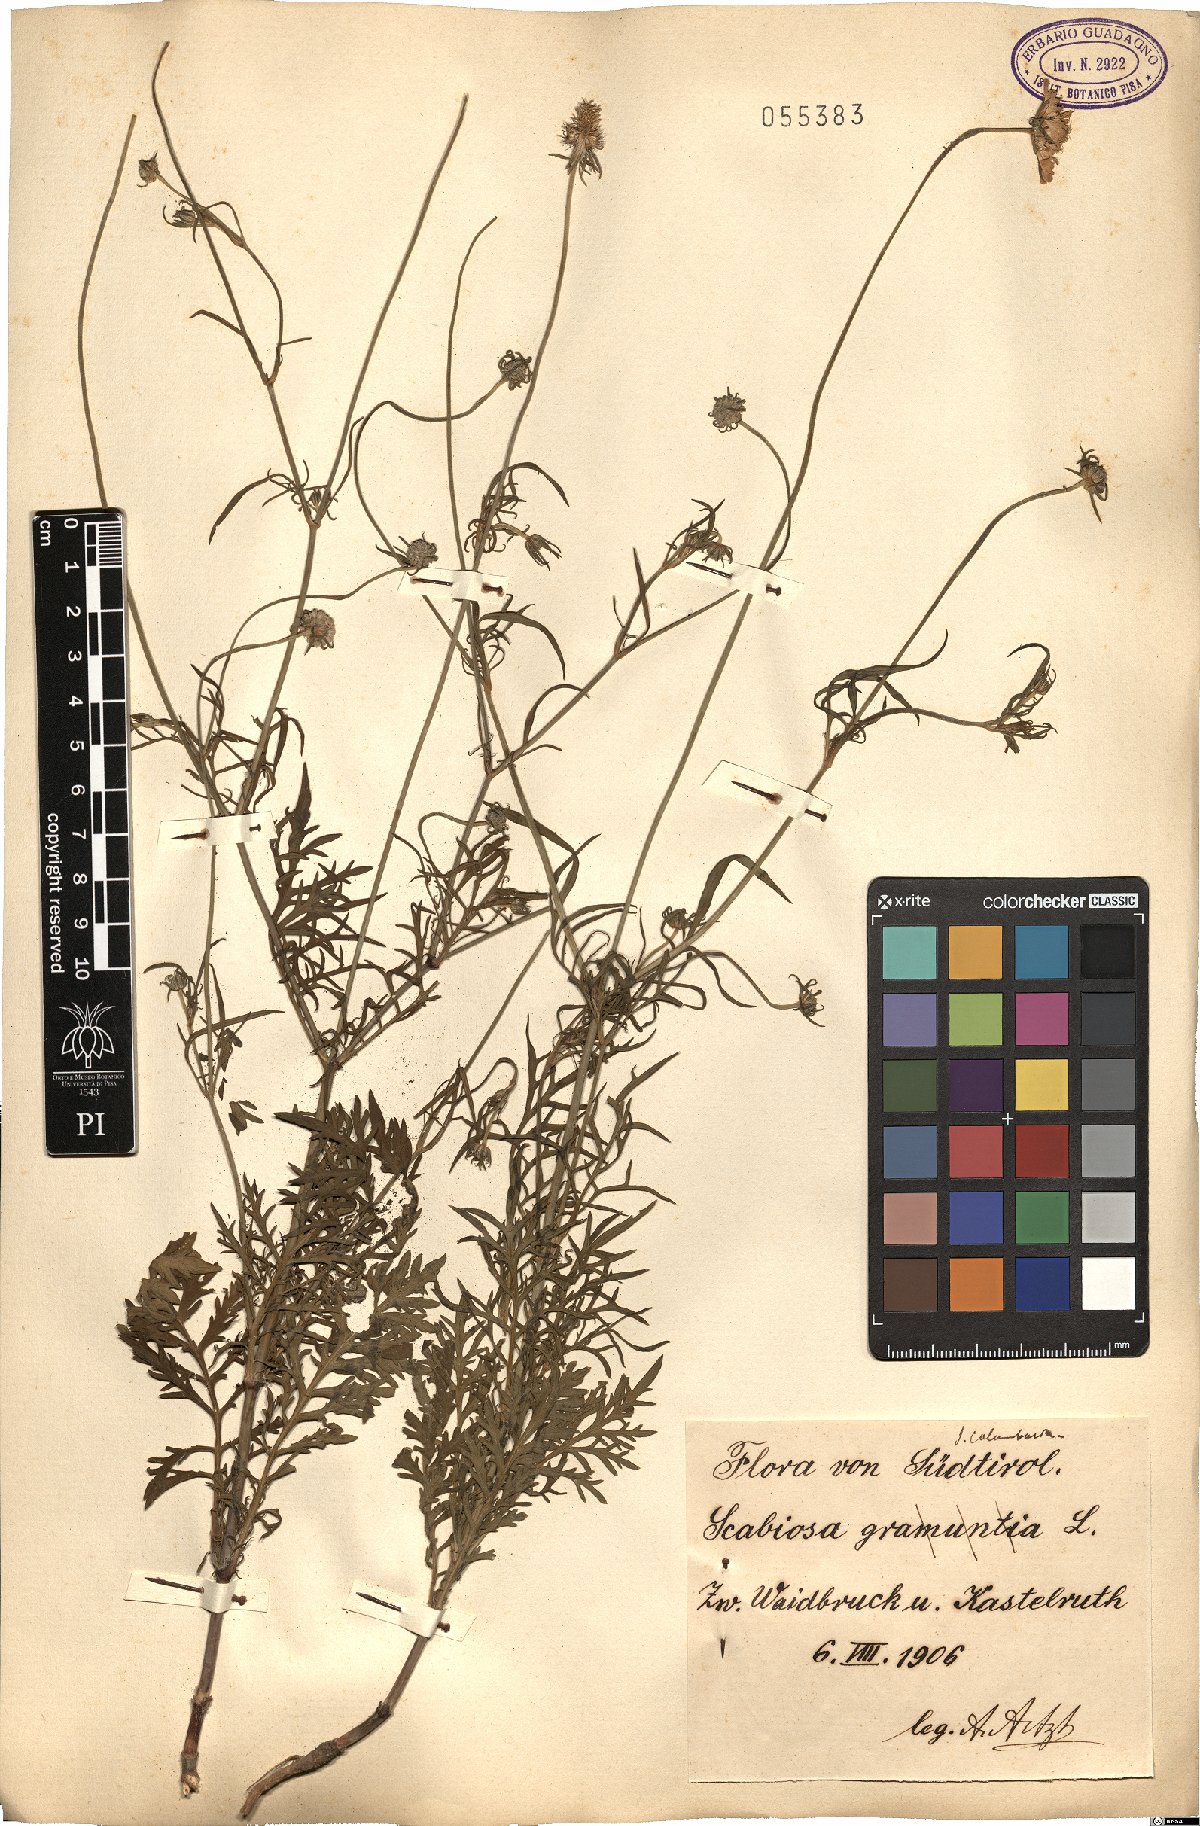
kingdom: Plantae
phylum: Tracheophyta
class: Magnoliopsida
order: Dipsacales
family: Caprifoliaceae
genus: Scabiosa
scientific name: Scabiosa columbaria
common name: Small scabious
